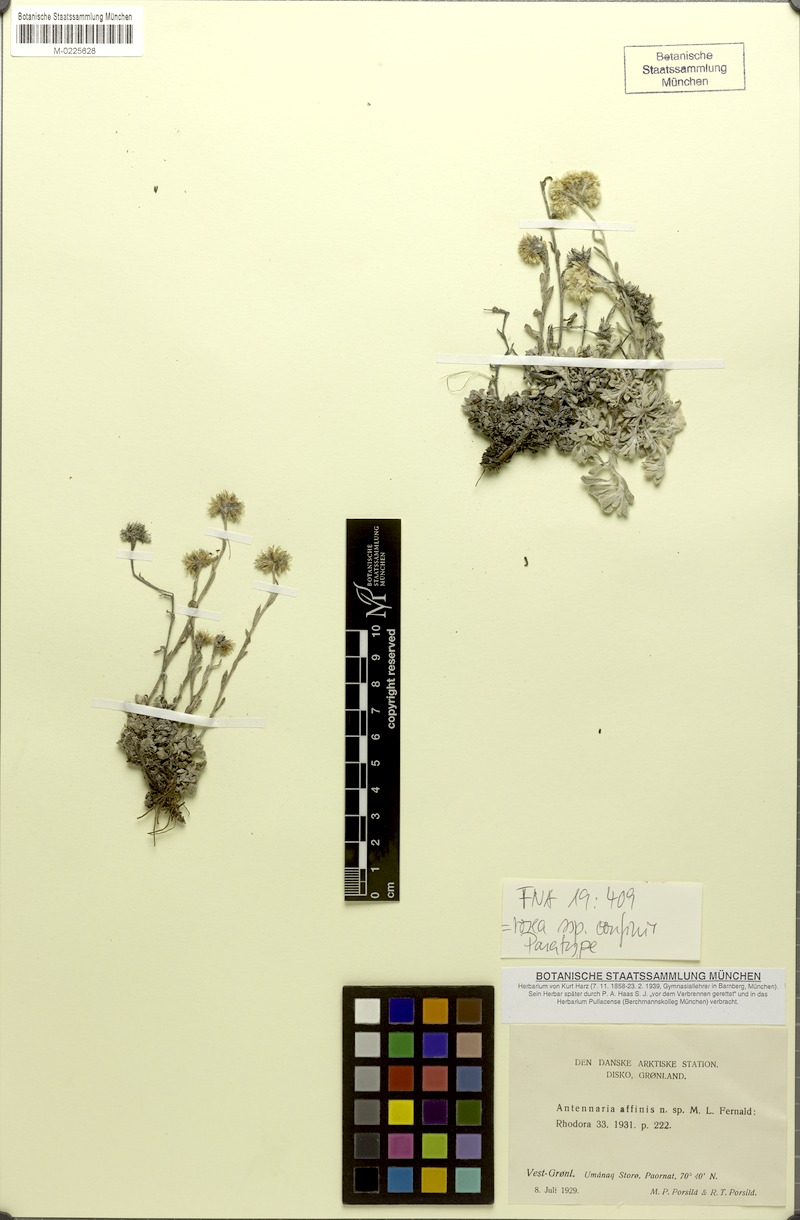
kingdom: Plantae
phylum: Tracheophyta
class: Magnoliopsida
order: Asterales
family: Asteraceae
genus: Antennaria
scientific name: Antennaria rosea
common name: Rosy pussytoes
